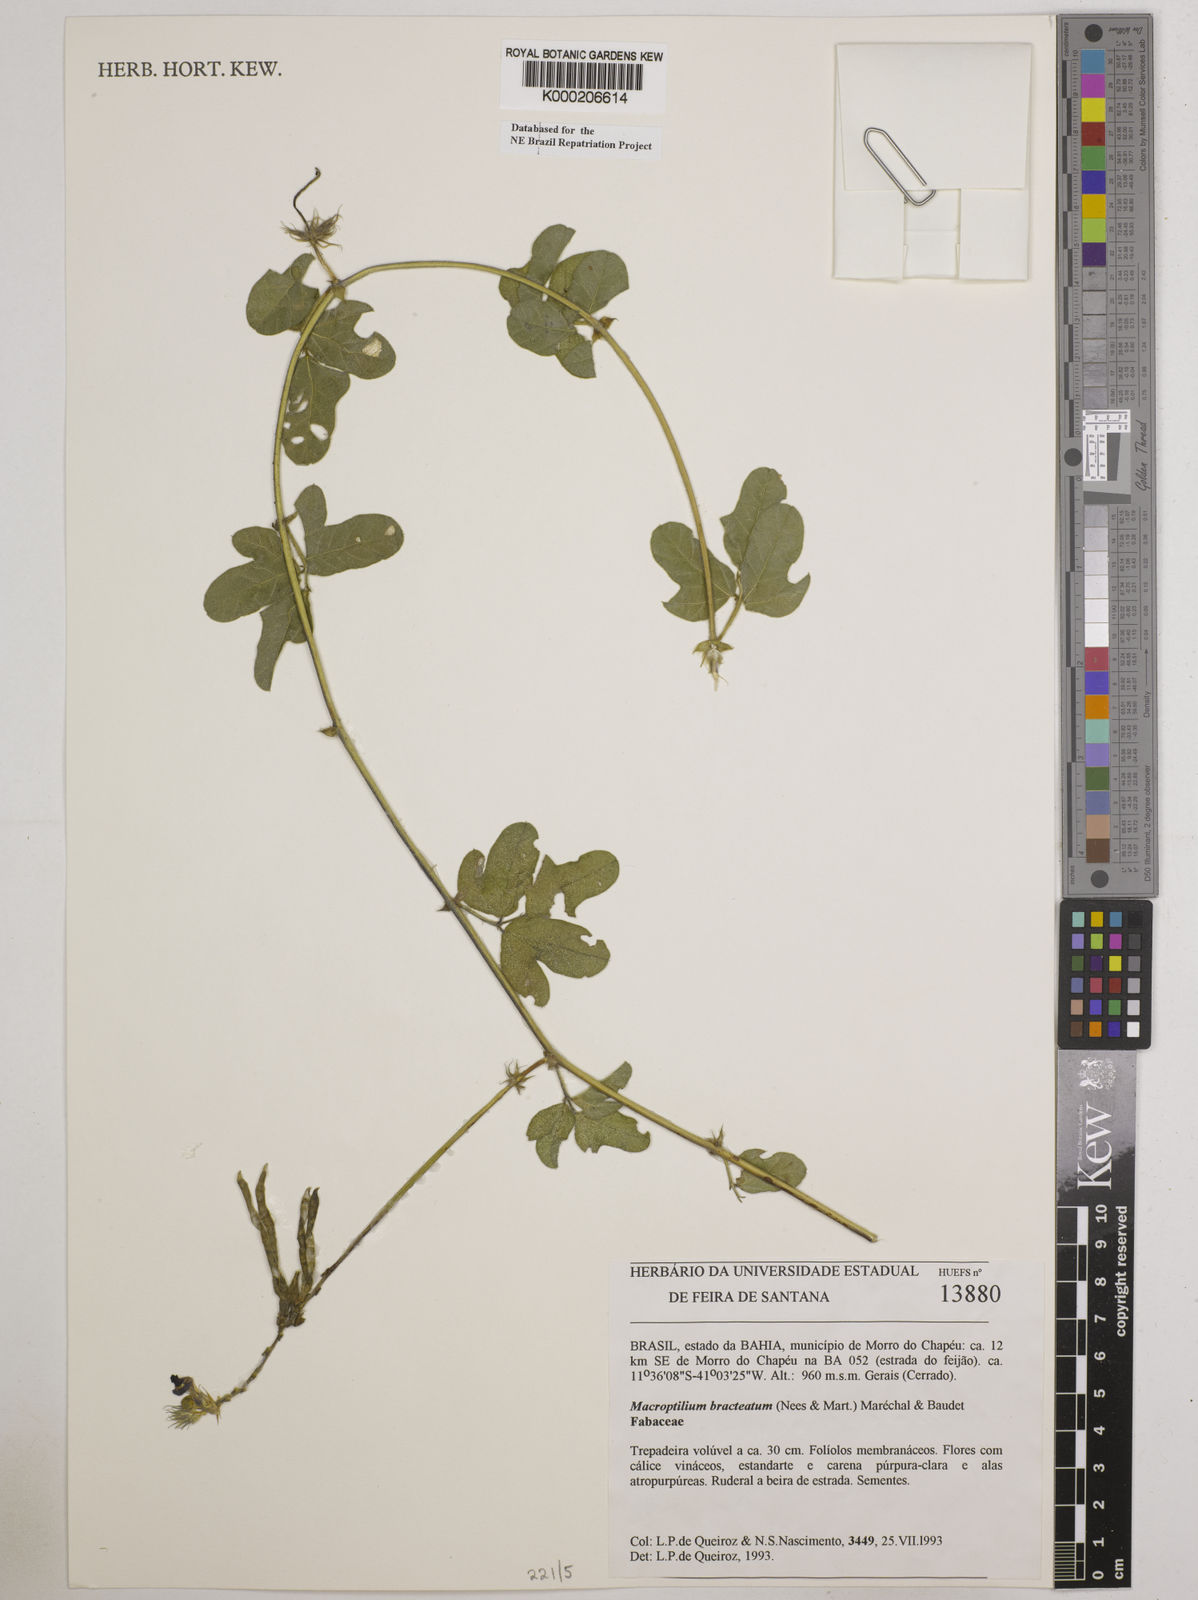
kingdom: Plantae
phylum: Tracheophyta
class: Magnoliopsida
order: Fabales
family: Fabaceae
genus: Macroptilium
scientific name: Macroptilium
